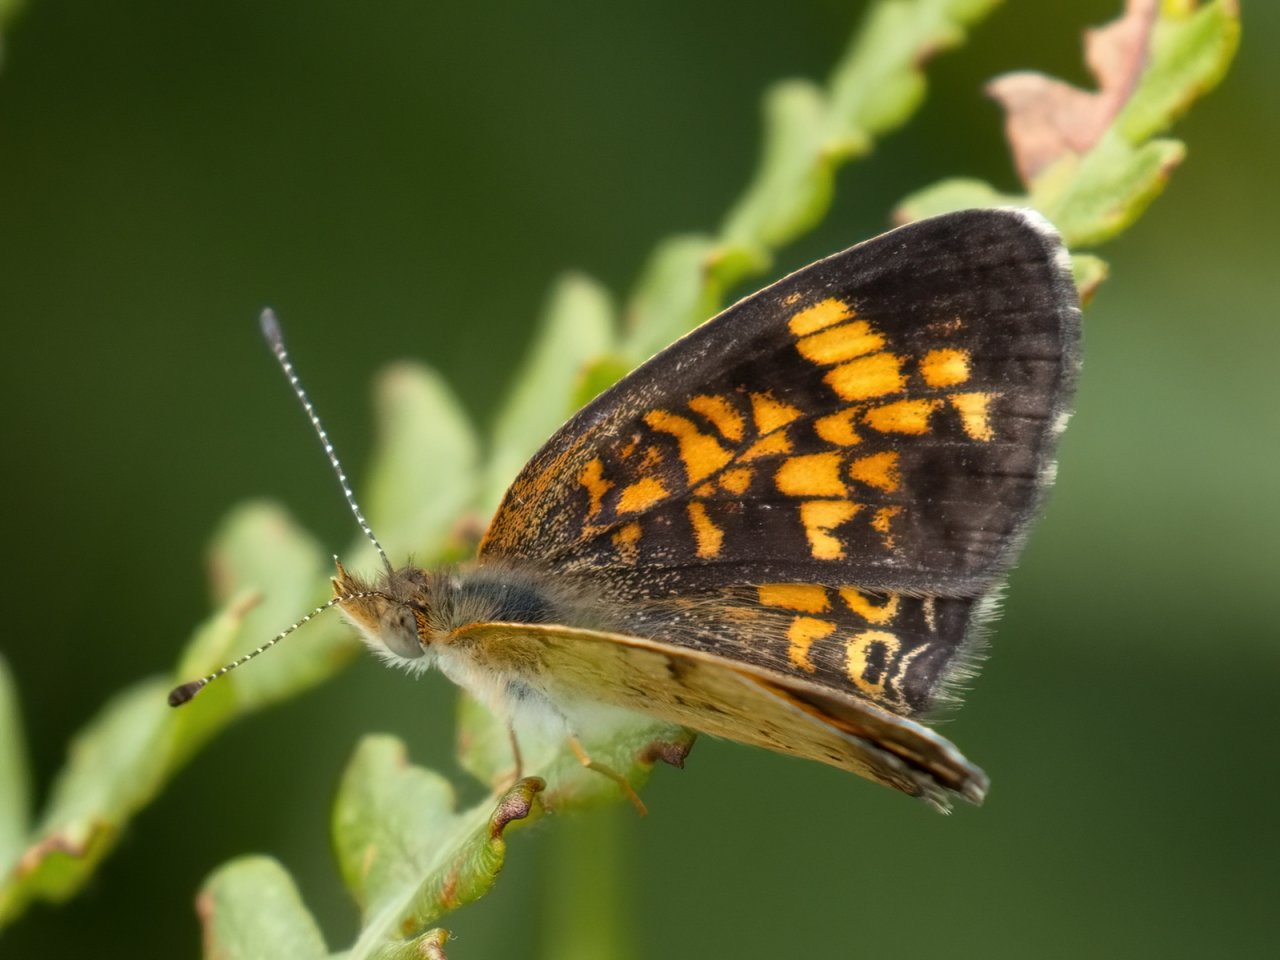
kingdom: Animalia
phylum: Arthropoda
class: Insecta
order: Lepidoptera
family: Nymphalidae
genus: Phyciodes
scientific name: Phyciodes tharos
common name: Pearl Crescent
